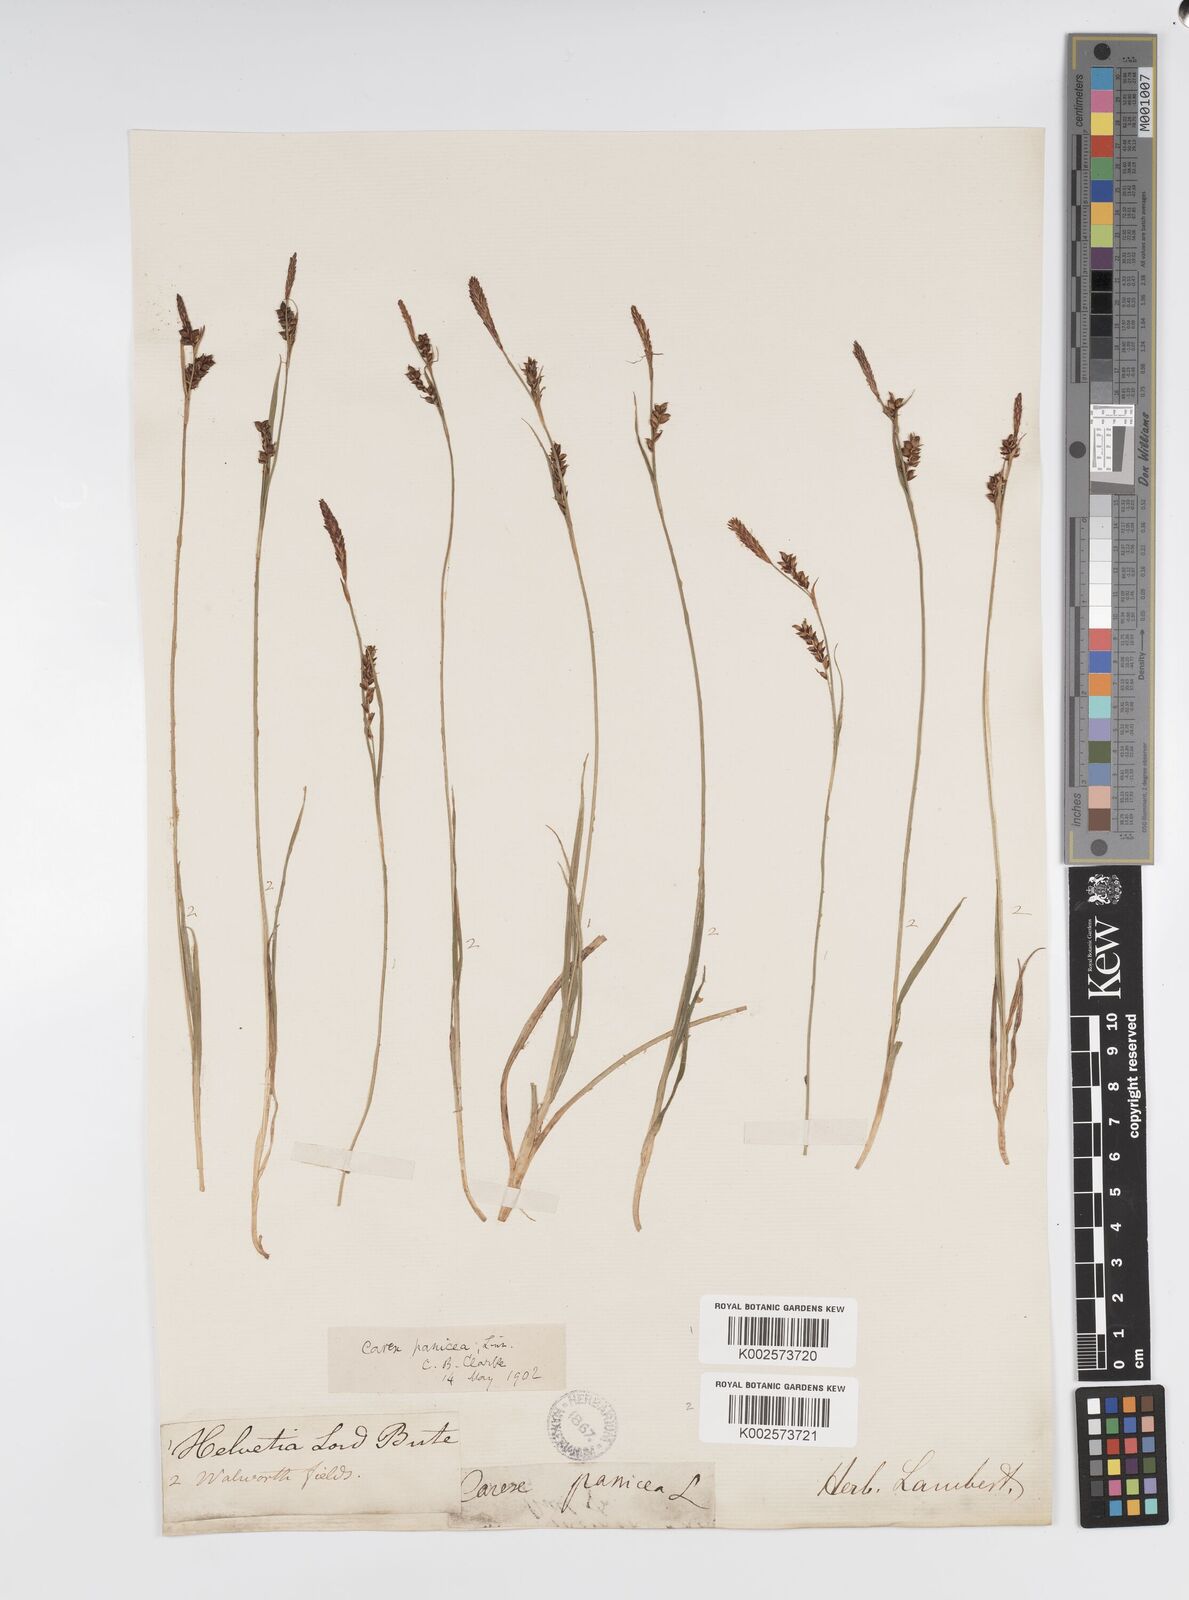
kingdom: Plantae
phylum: Tracheophyta
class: Liliopsida
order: Poales
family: Cyperaceae
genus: Carex
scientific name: Carex panicea
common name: Carnation sedge
